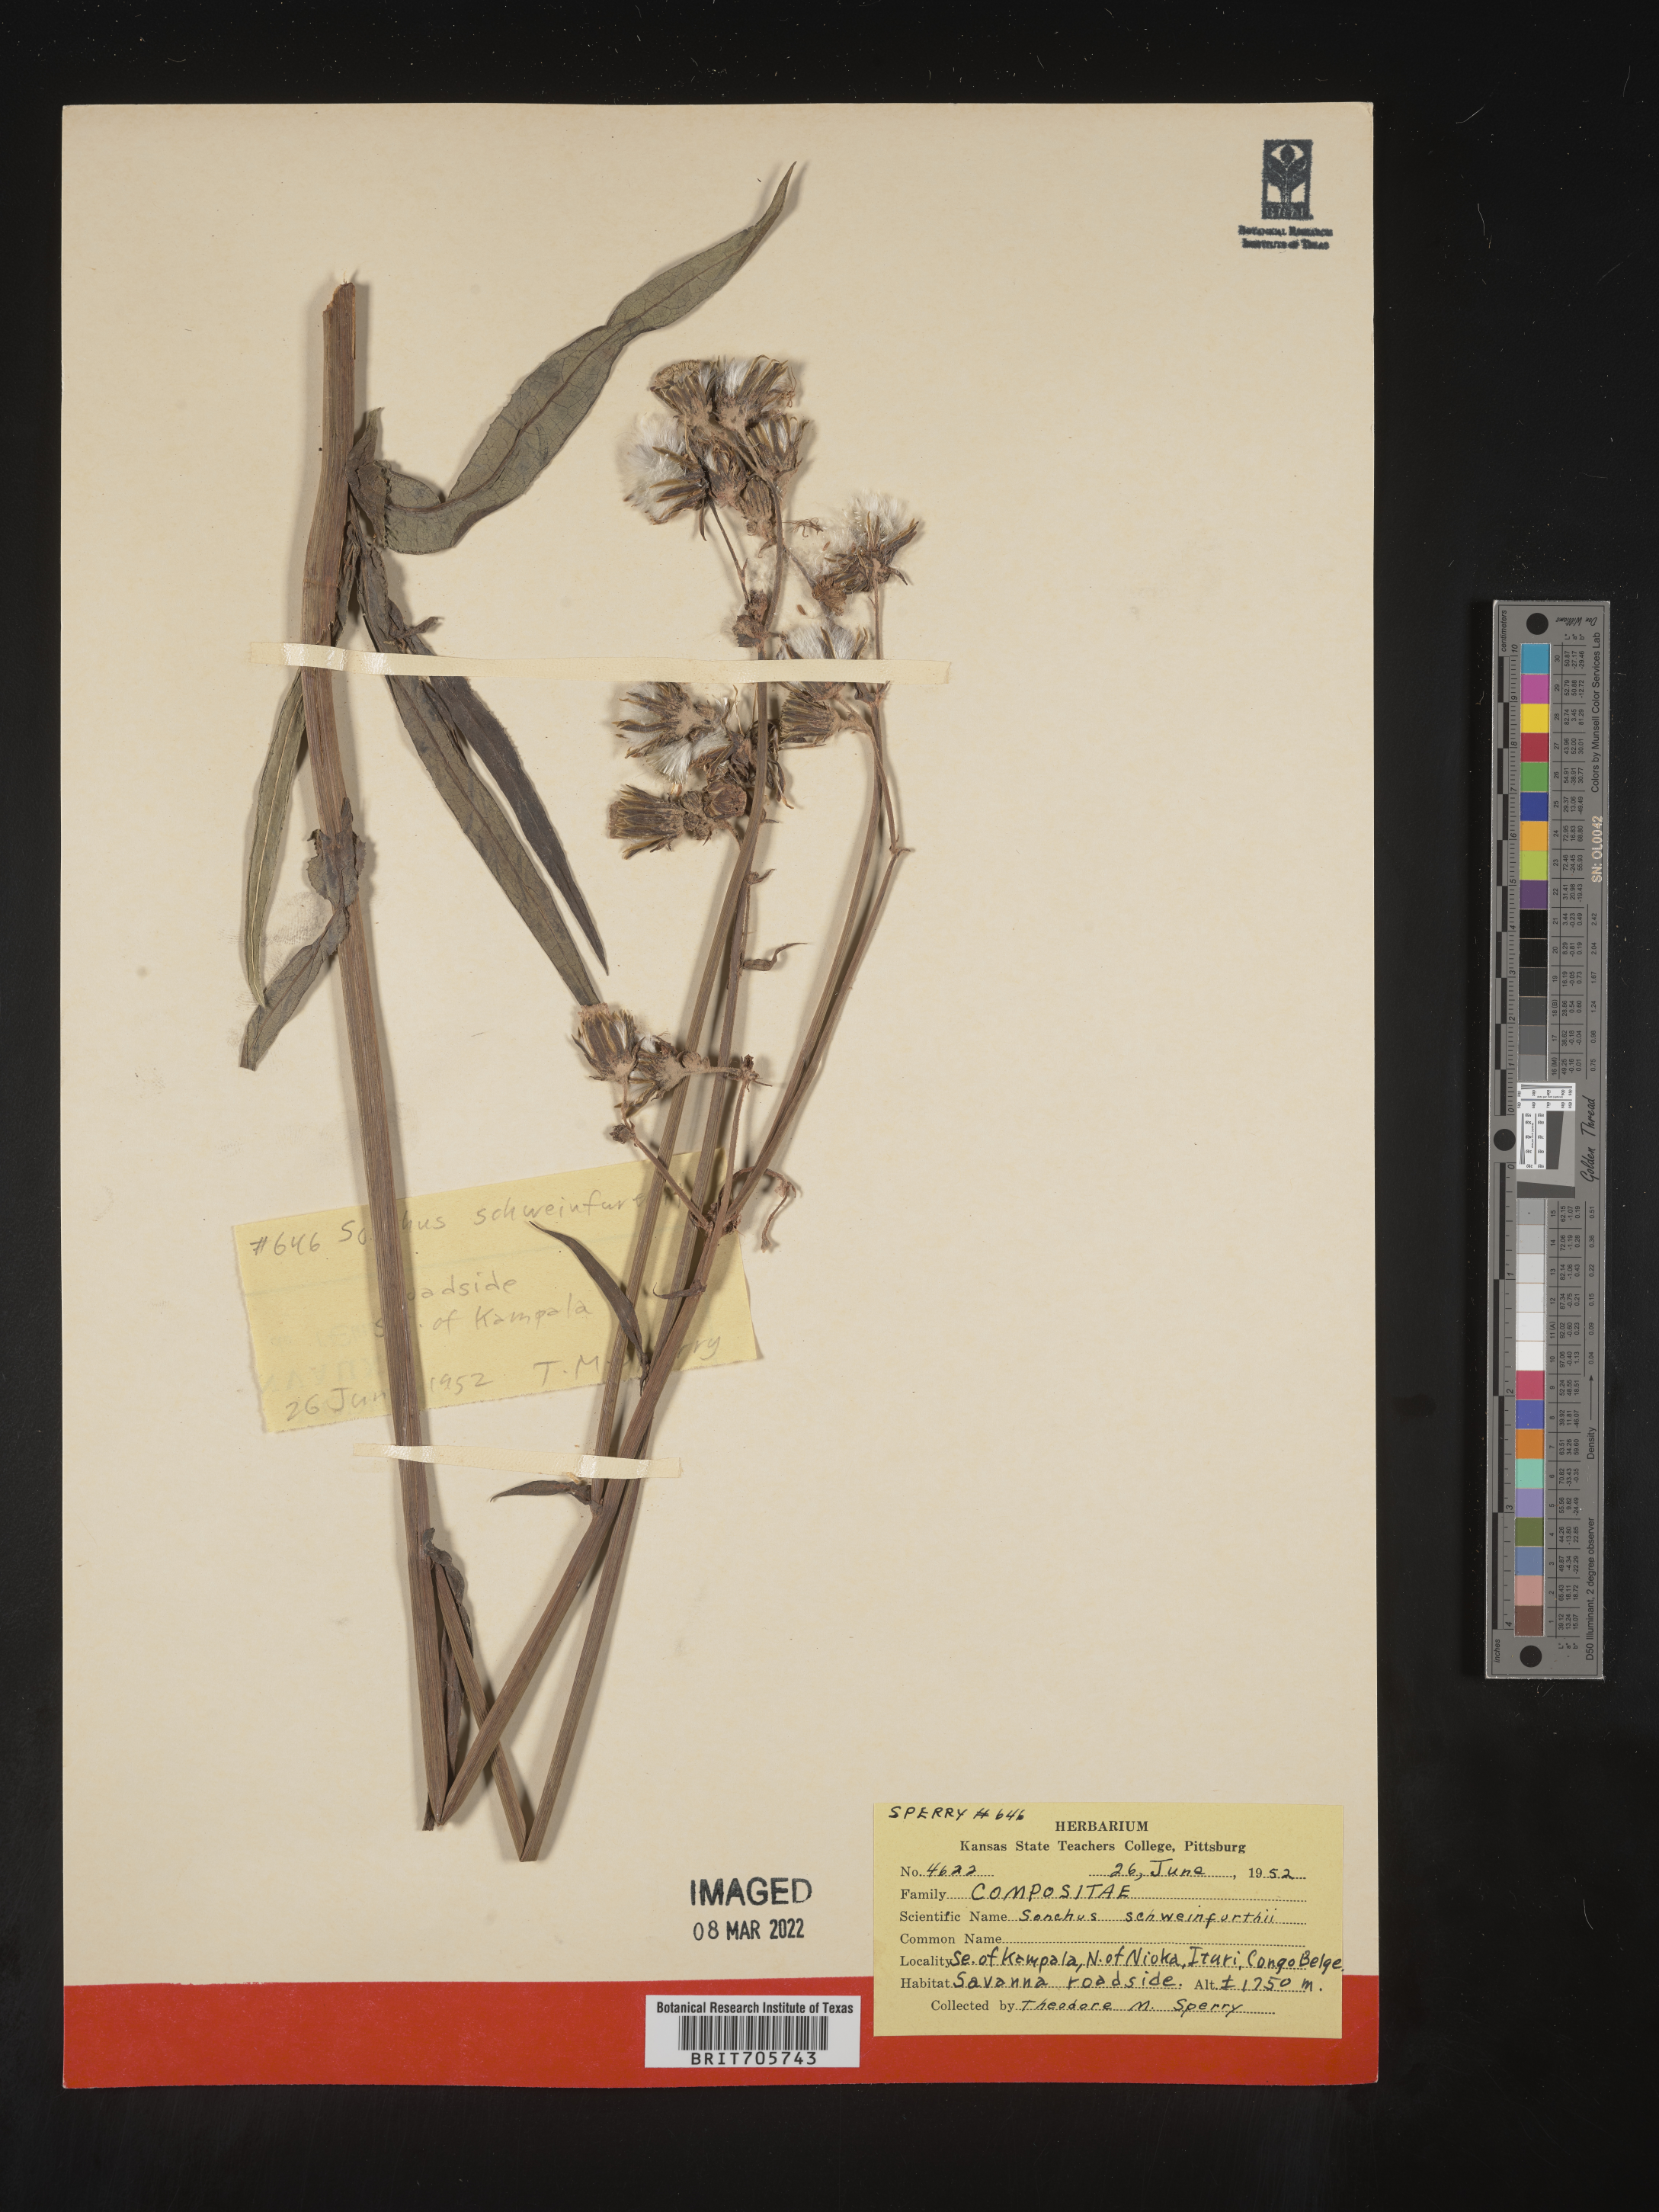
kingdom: Plantae
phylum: Tracheophyta
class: Magnoliopsida
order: Asterales
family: Asteraceae
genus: Sonchus
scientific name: Sonchus
